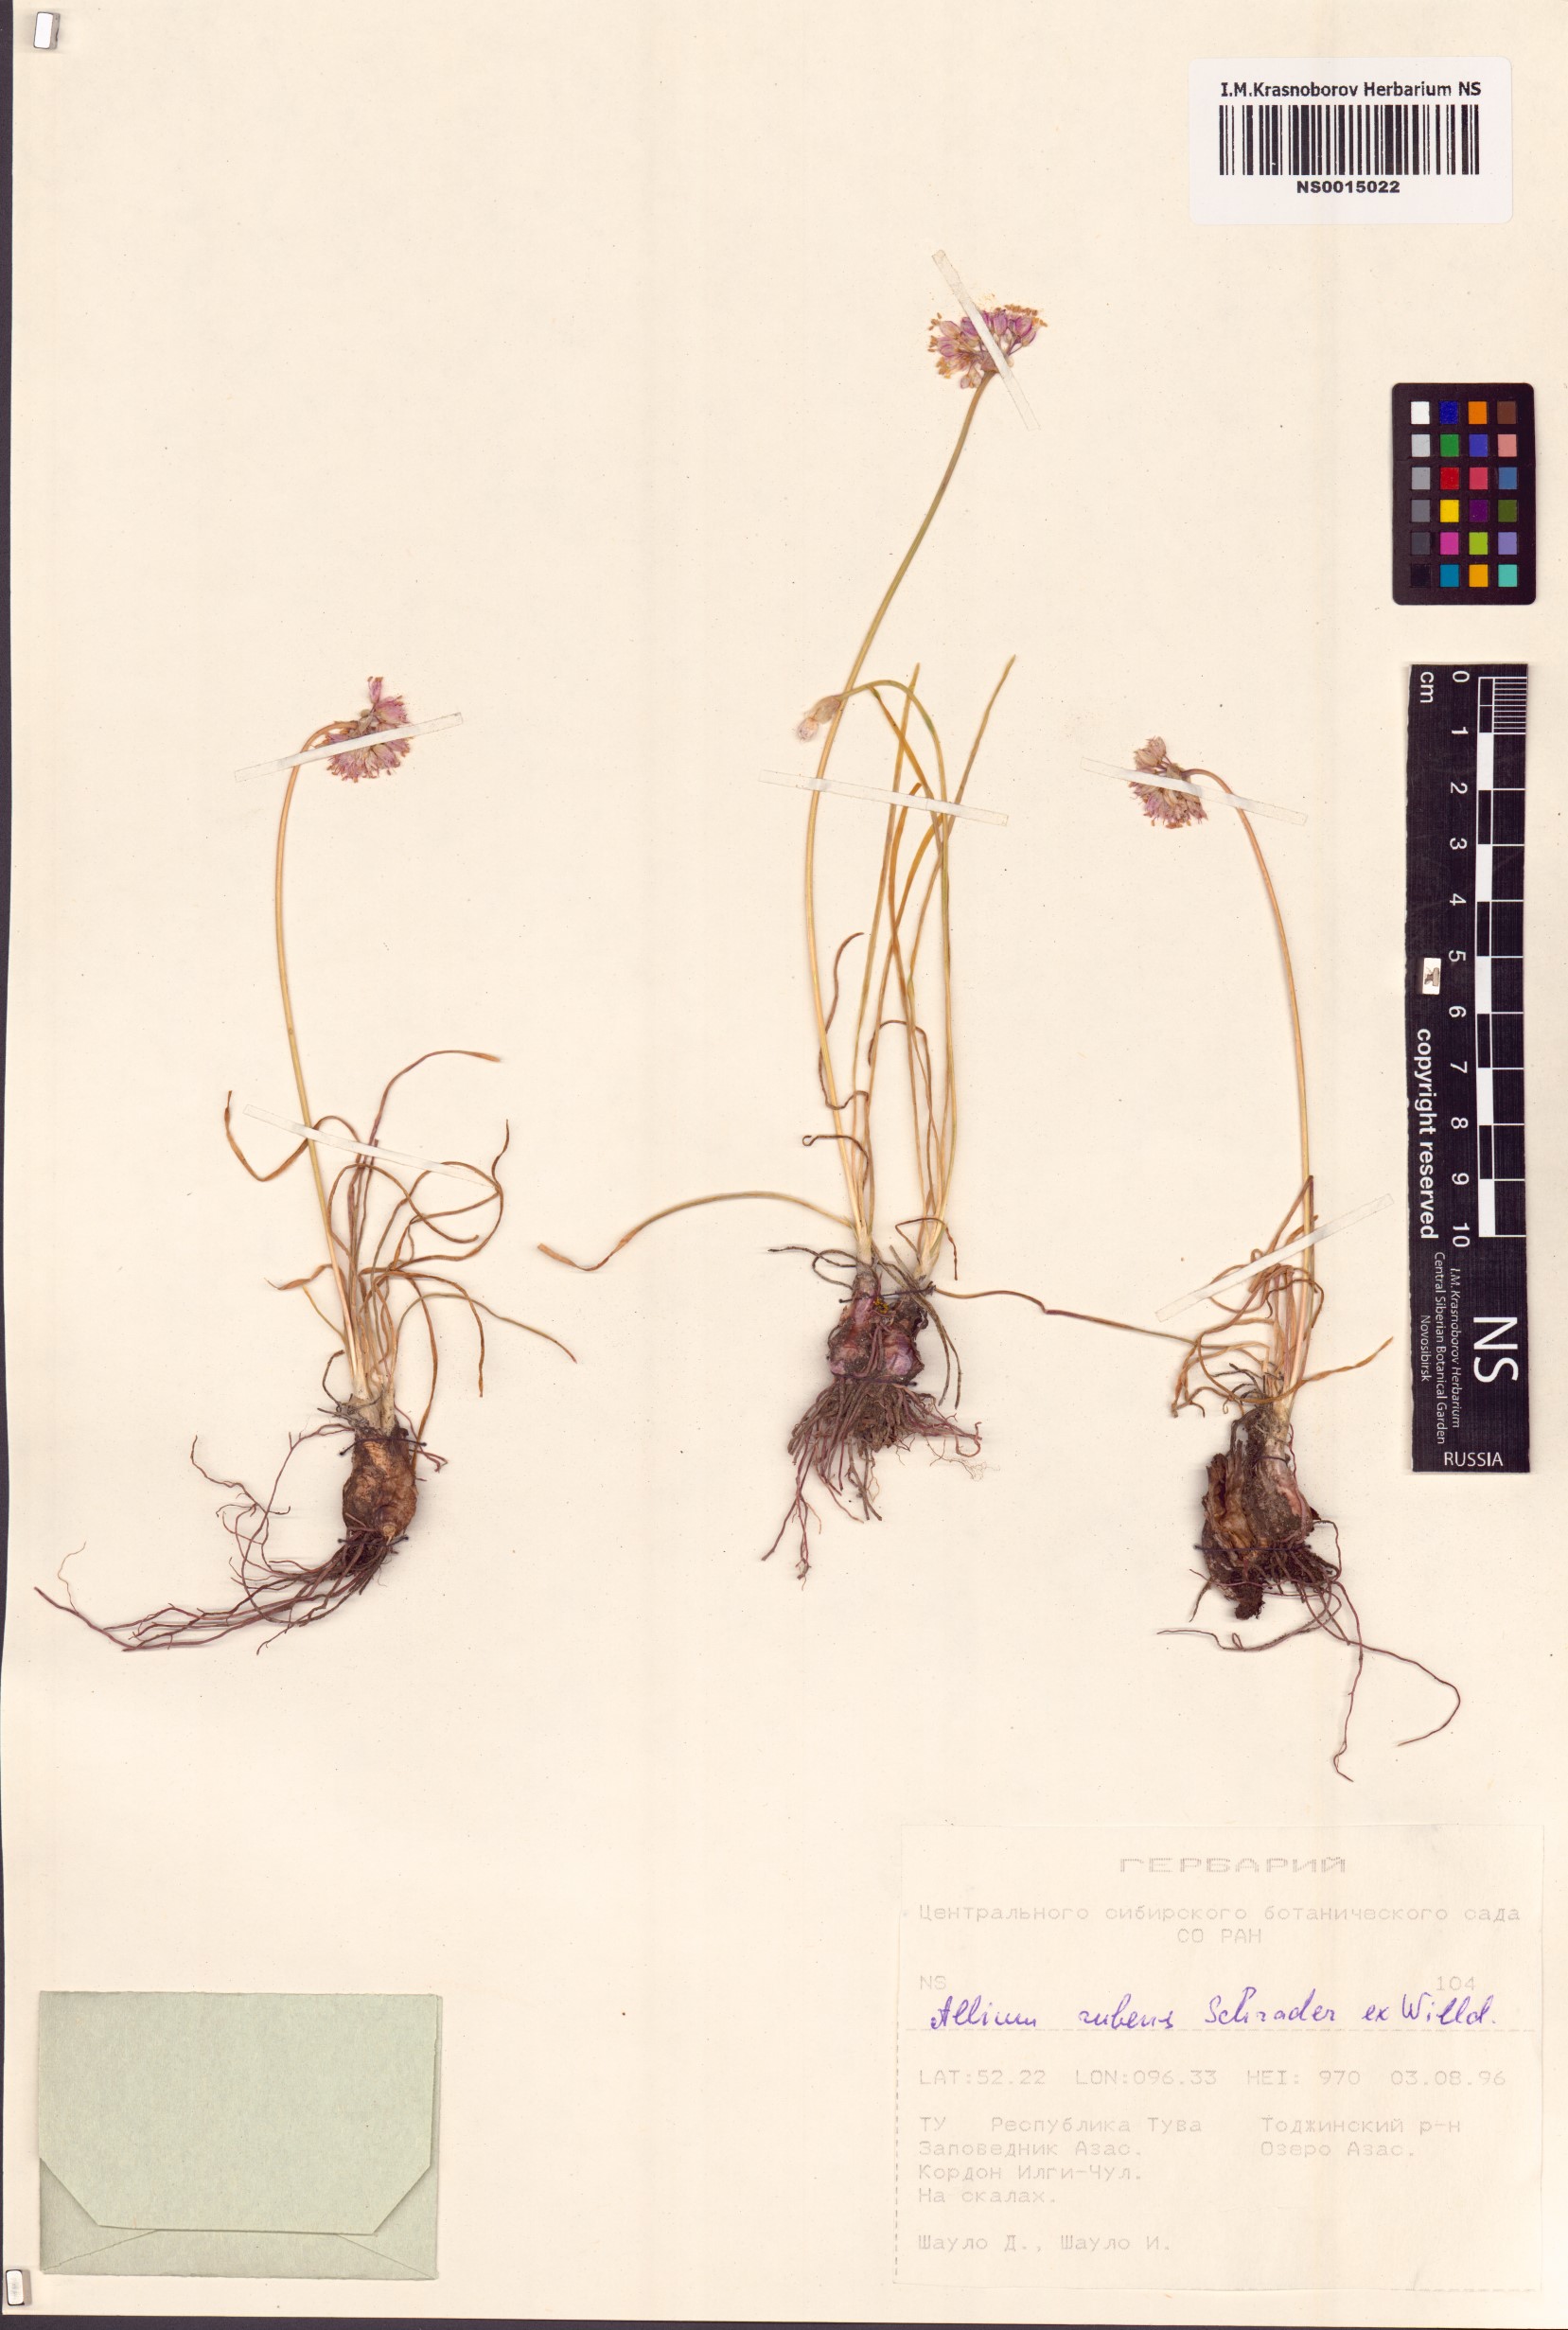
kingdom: Plantae
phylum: Tracheophyta
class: Liliopsida
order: Asparagales
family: Amaryllidaceae
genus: Allium
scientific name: Allium rubens
